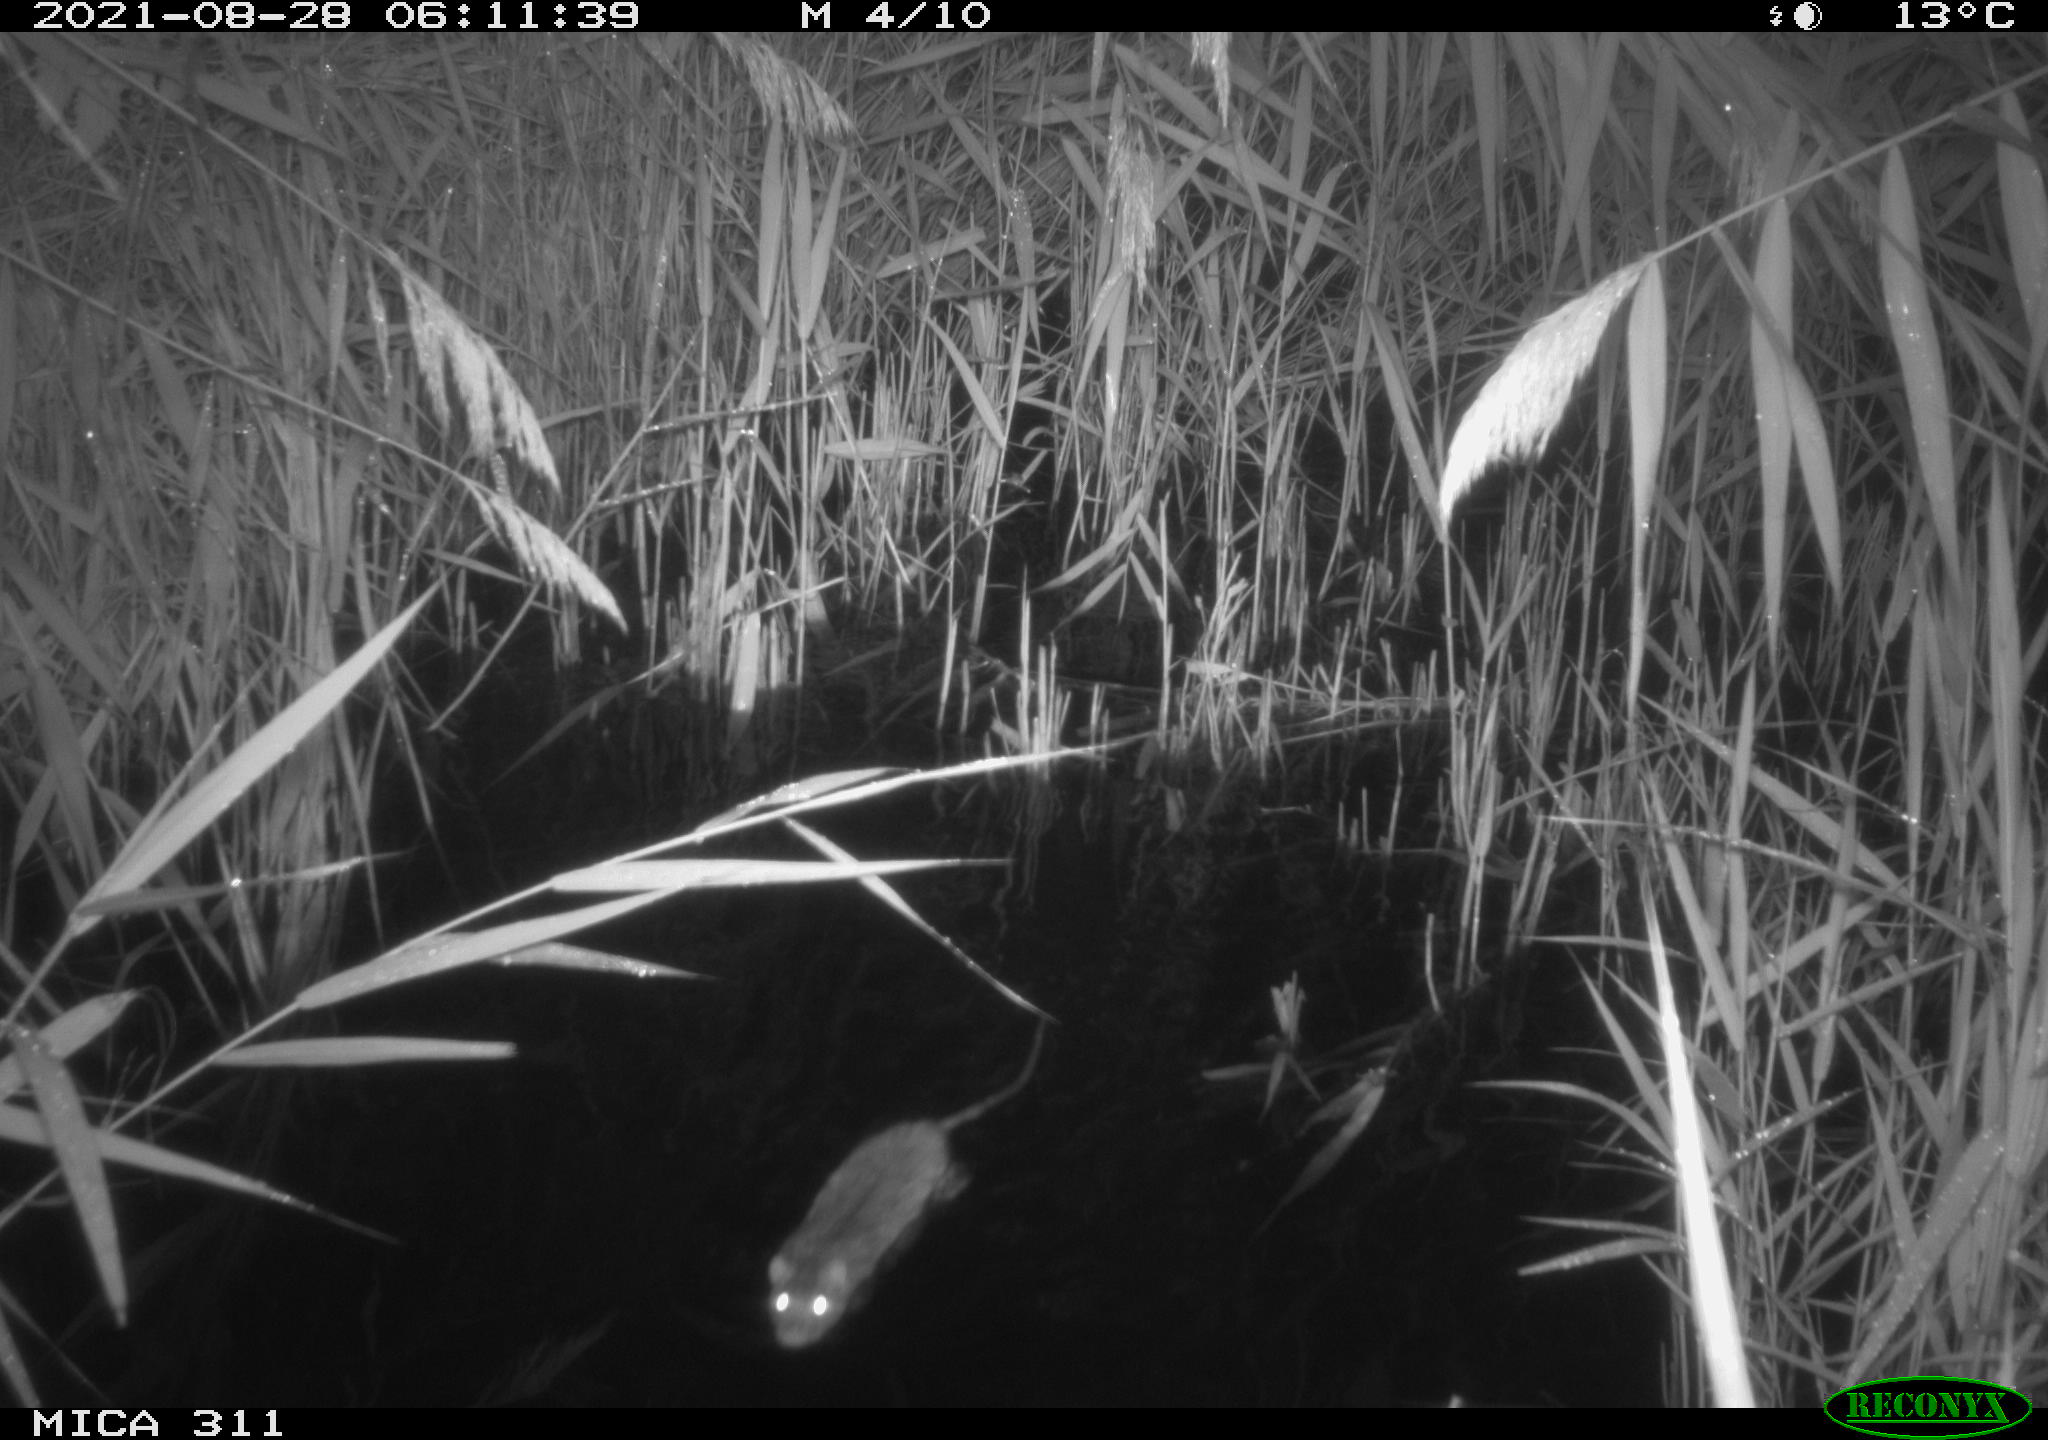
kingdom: Animalia
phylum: Chordata
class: Mammalia
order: Rodentia
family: Muridae
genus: Rattus
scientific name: Rattus norvegicus
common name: Brown rat
